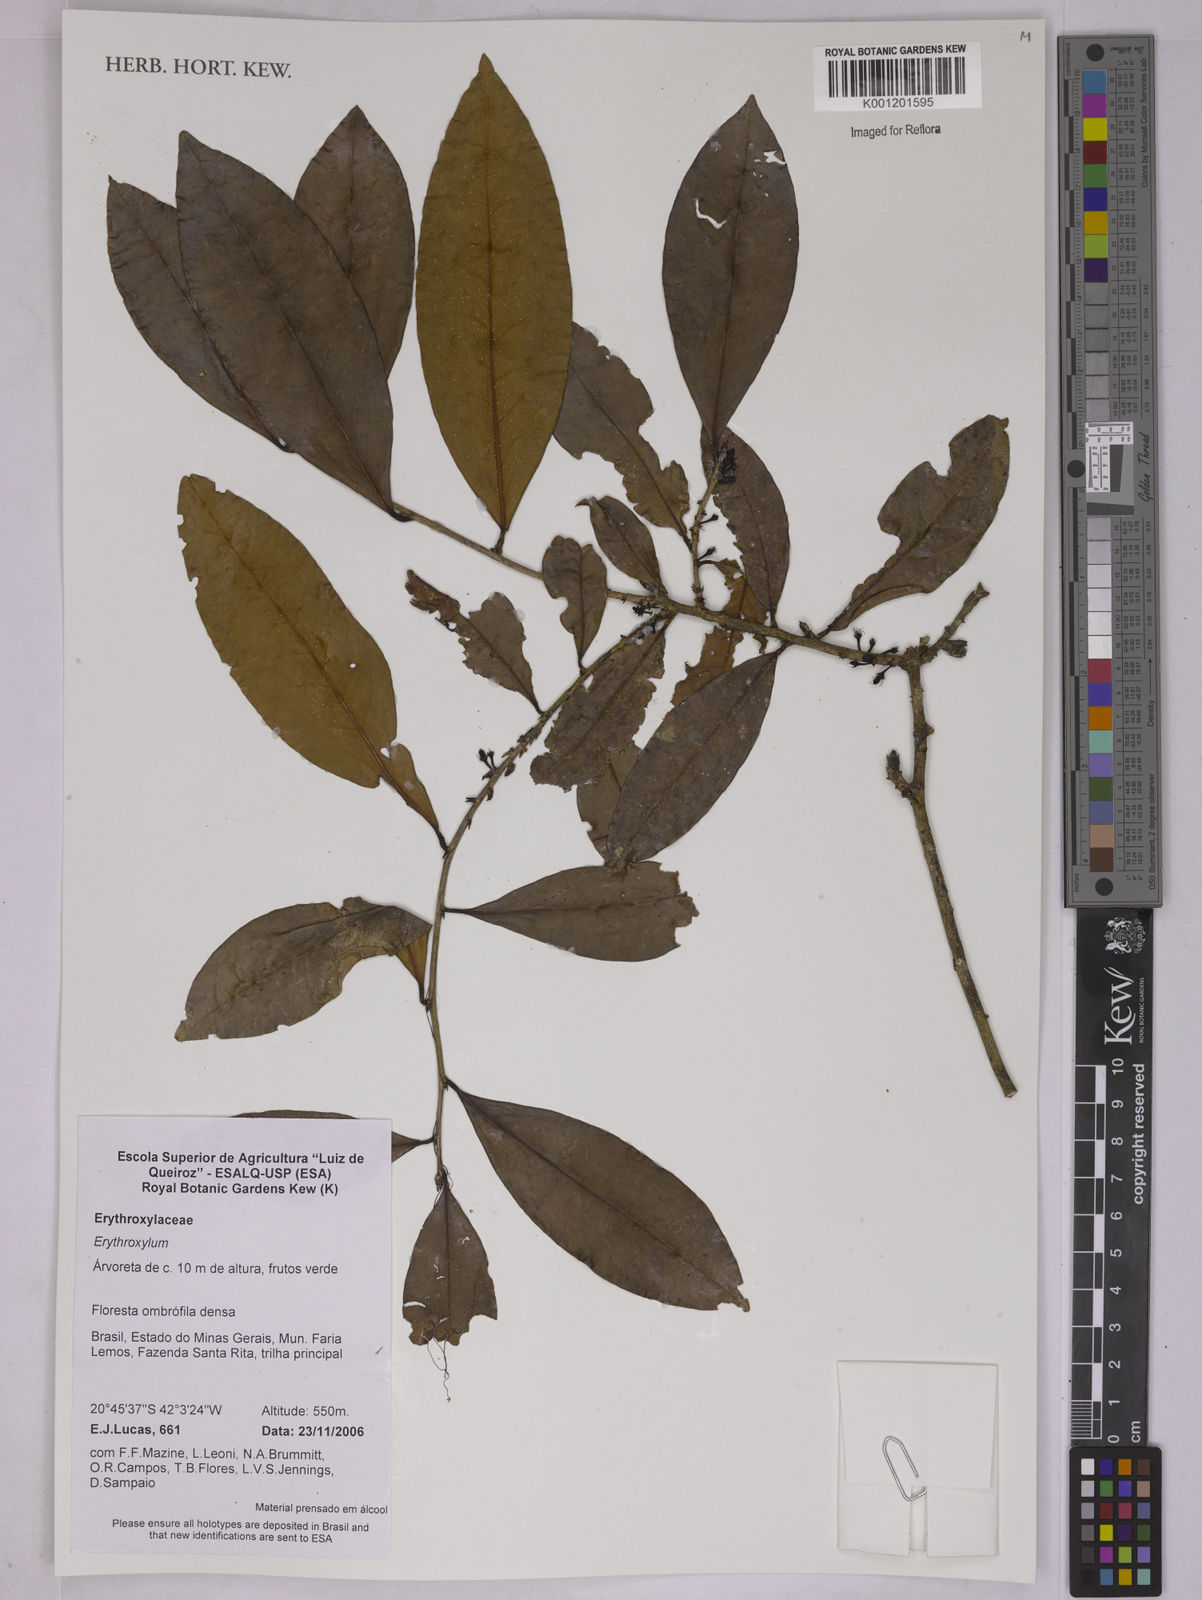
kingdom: Plantae
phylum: Tracheophyta
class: Magnoliopsida
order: Malpighiales
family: Erythroxylaceae
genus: Erythroxylum
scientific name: Erythroxylum
